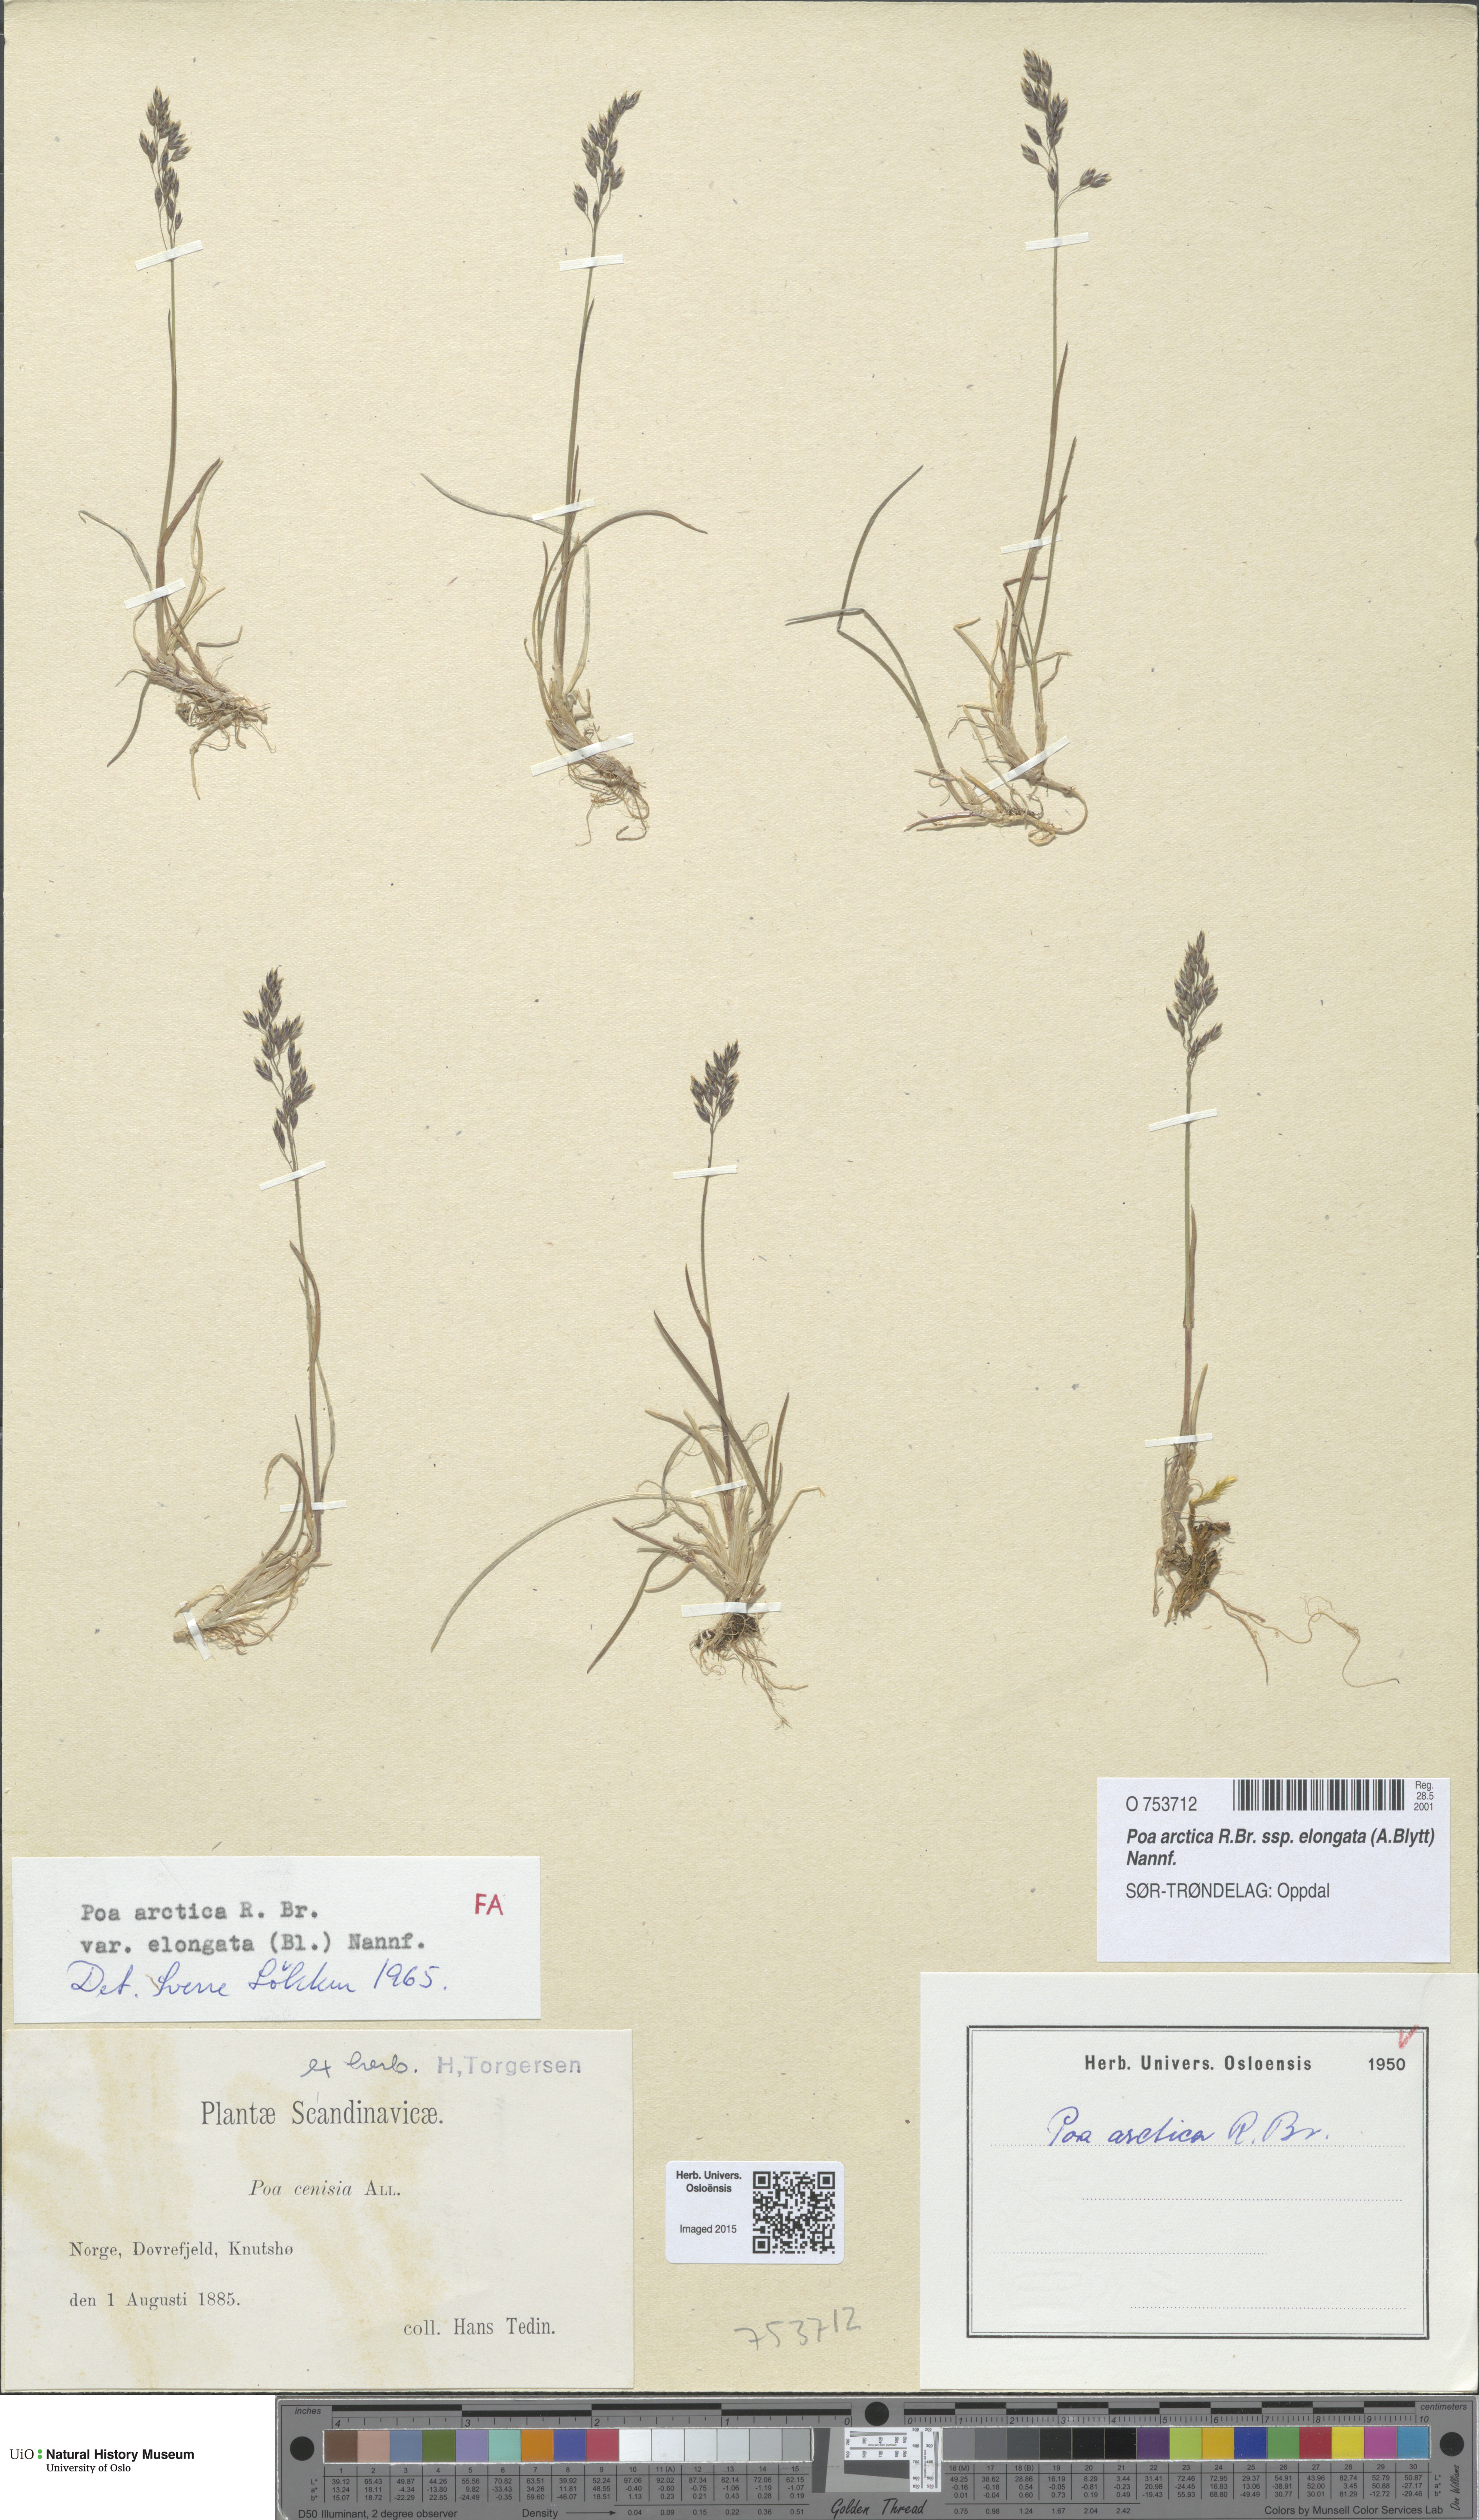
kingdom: Plantae
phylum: Tracheophyta
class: Liliopsida
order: Poales
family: Poaceae
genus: Poa
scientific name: Poa arctica
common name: Arctic bluegrass
